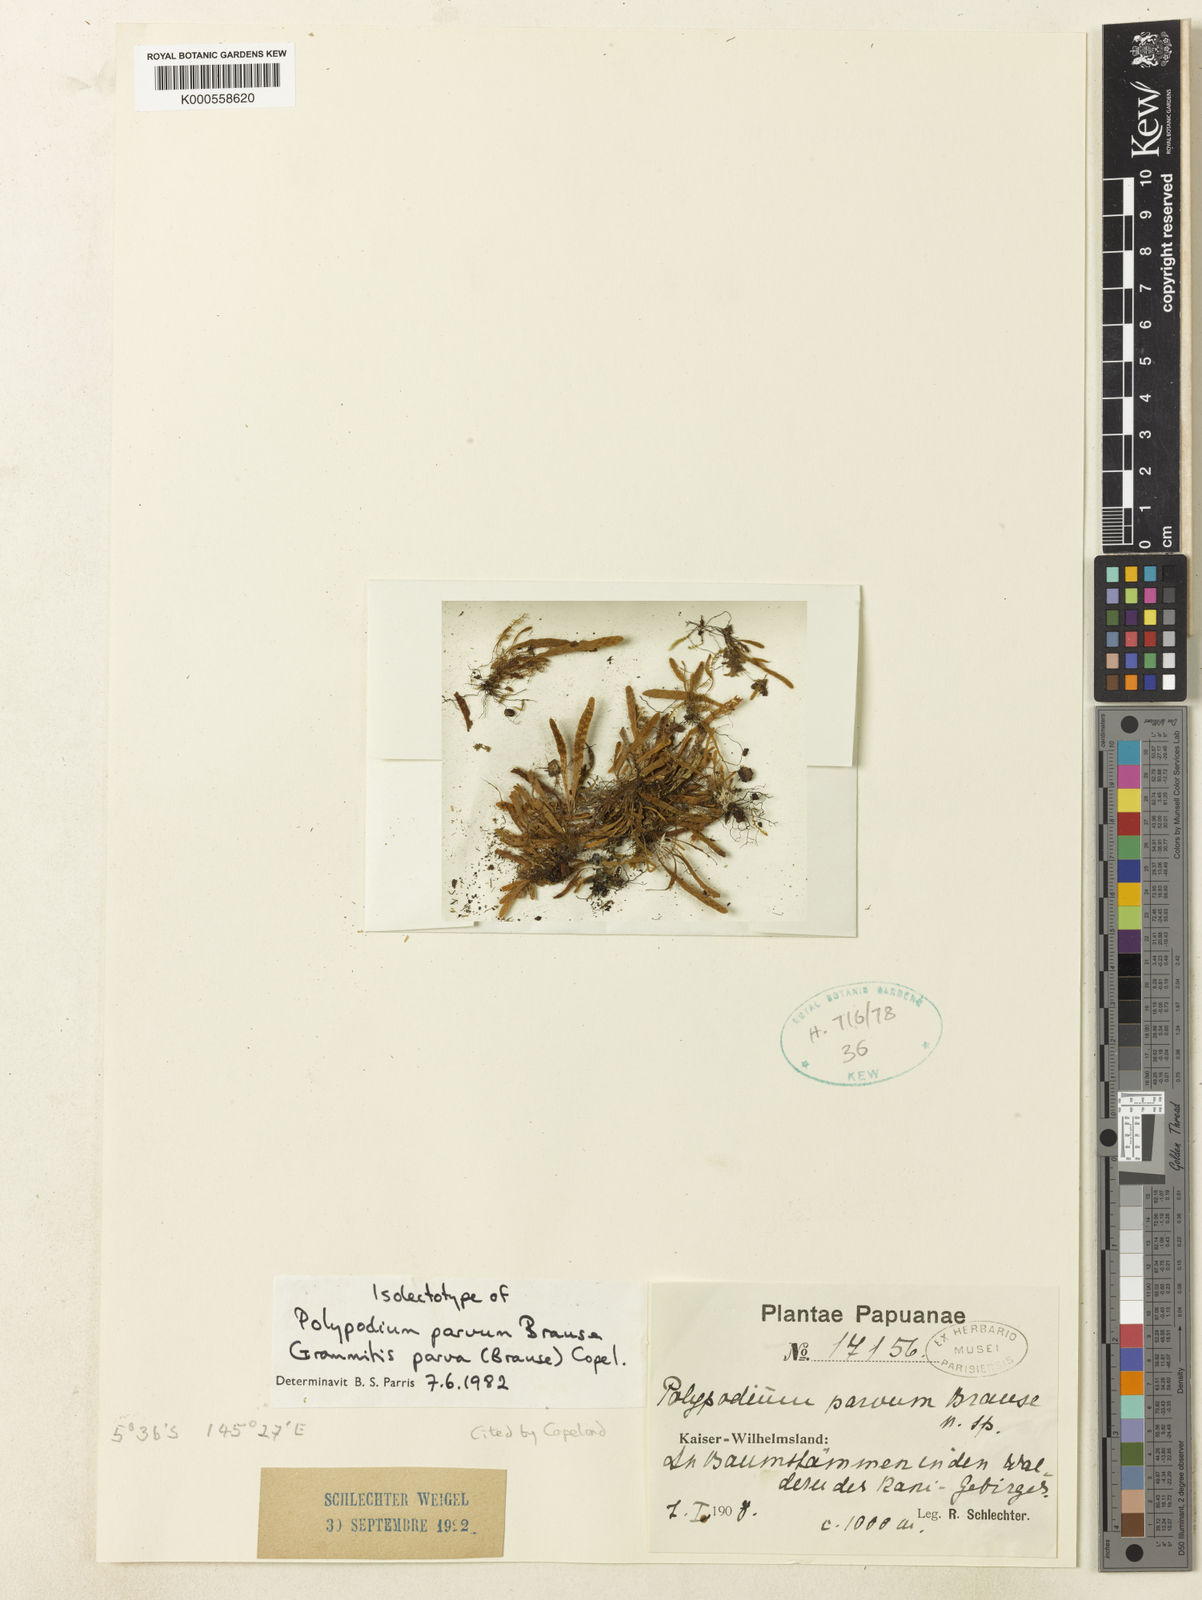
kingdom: Plantae
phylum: Tracheophyta
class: Polypodiopsida
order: Polypodiales
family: Polypodiaceae
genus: Oreogrammitis
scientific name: Oreogrammitis parva
